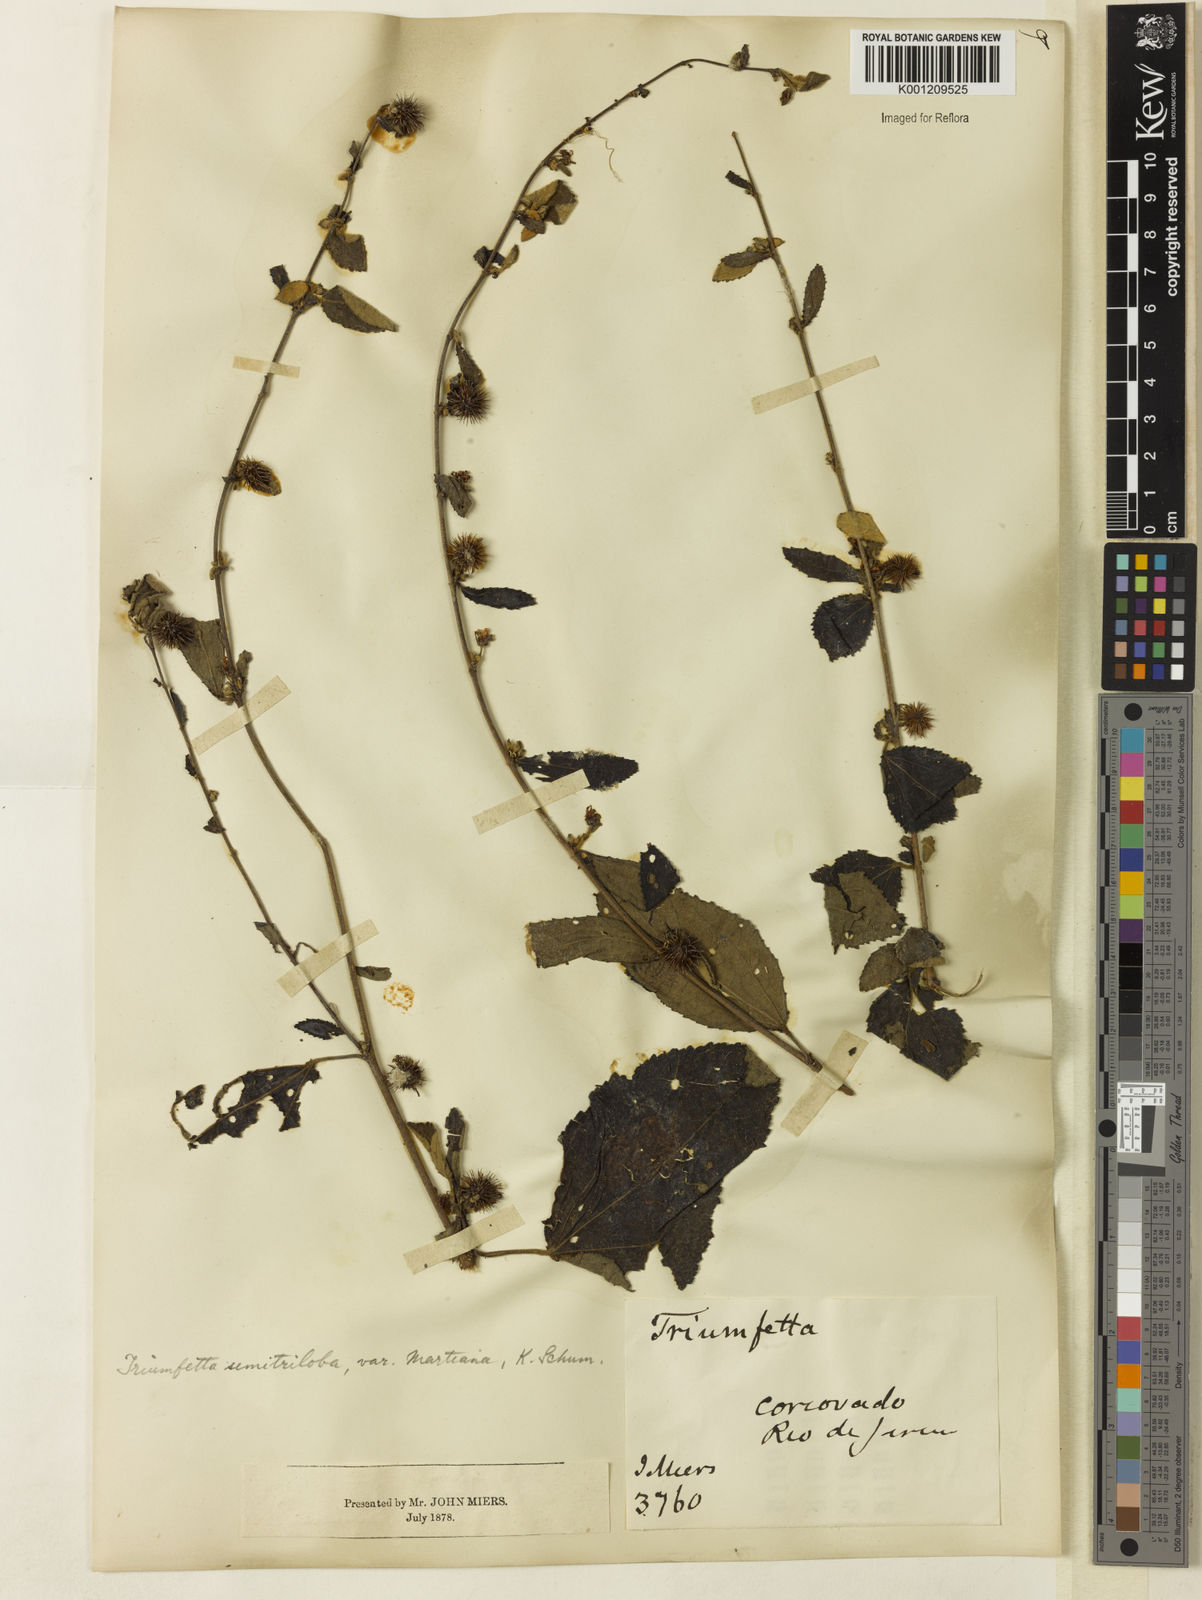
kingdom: Plantae
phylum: Tracheophyta
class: Magnoliopsida
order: Malvales
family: Malvaceae
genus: Triumfetta
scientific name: Triumfetta semitriloba
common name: Sacramento burbark
